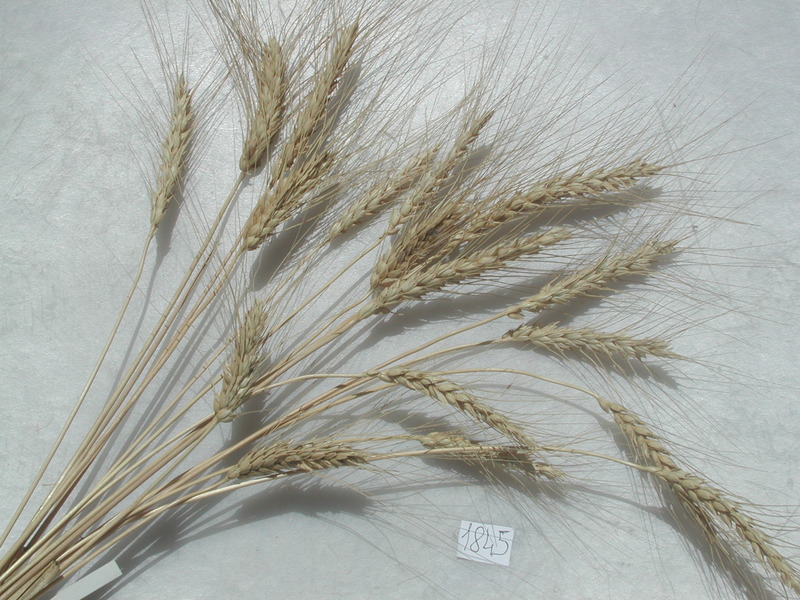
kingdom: Plantae
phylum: Tracheophyta
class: Liliopsida
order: Poales
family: Poaceae
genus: Triticum
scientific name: Triticum aestivum
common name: Wheat
